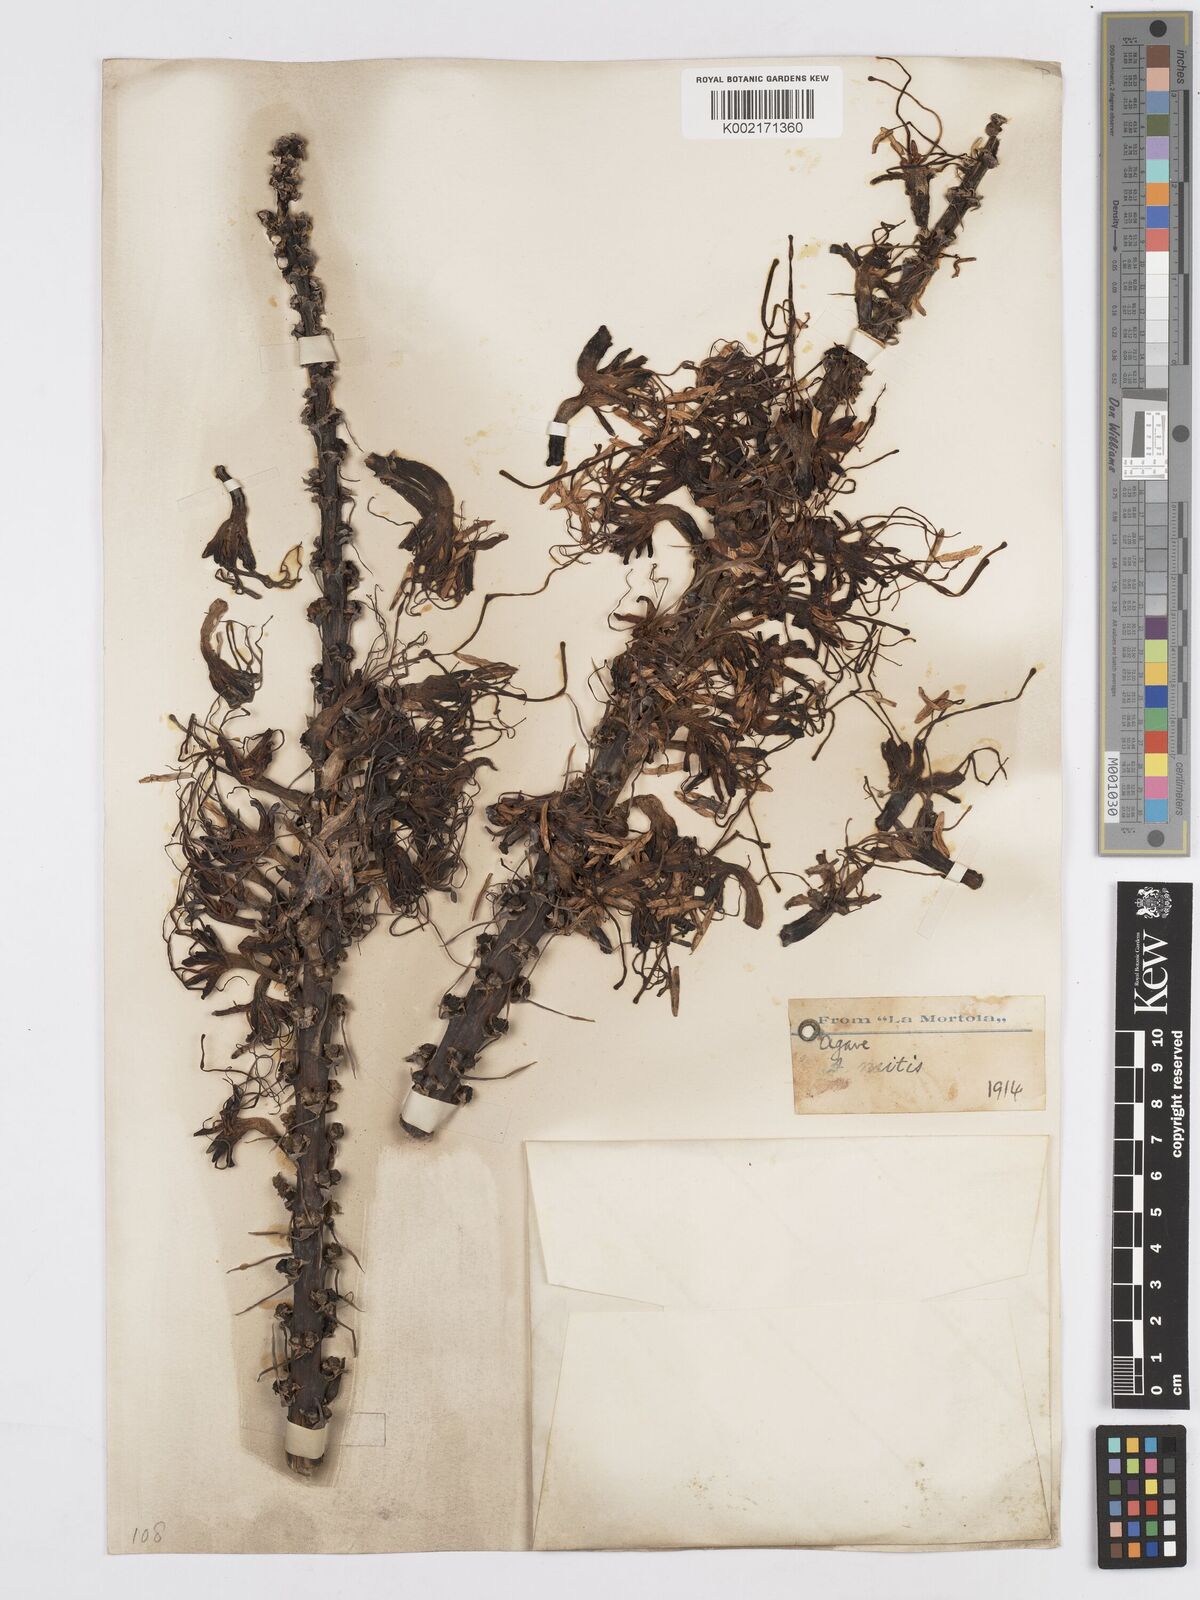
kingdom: Plantae
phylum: Tracheophyta
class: Liliopsida
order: Asparagales
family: Asparagaceae
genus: Agave
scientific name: Agave mitis
